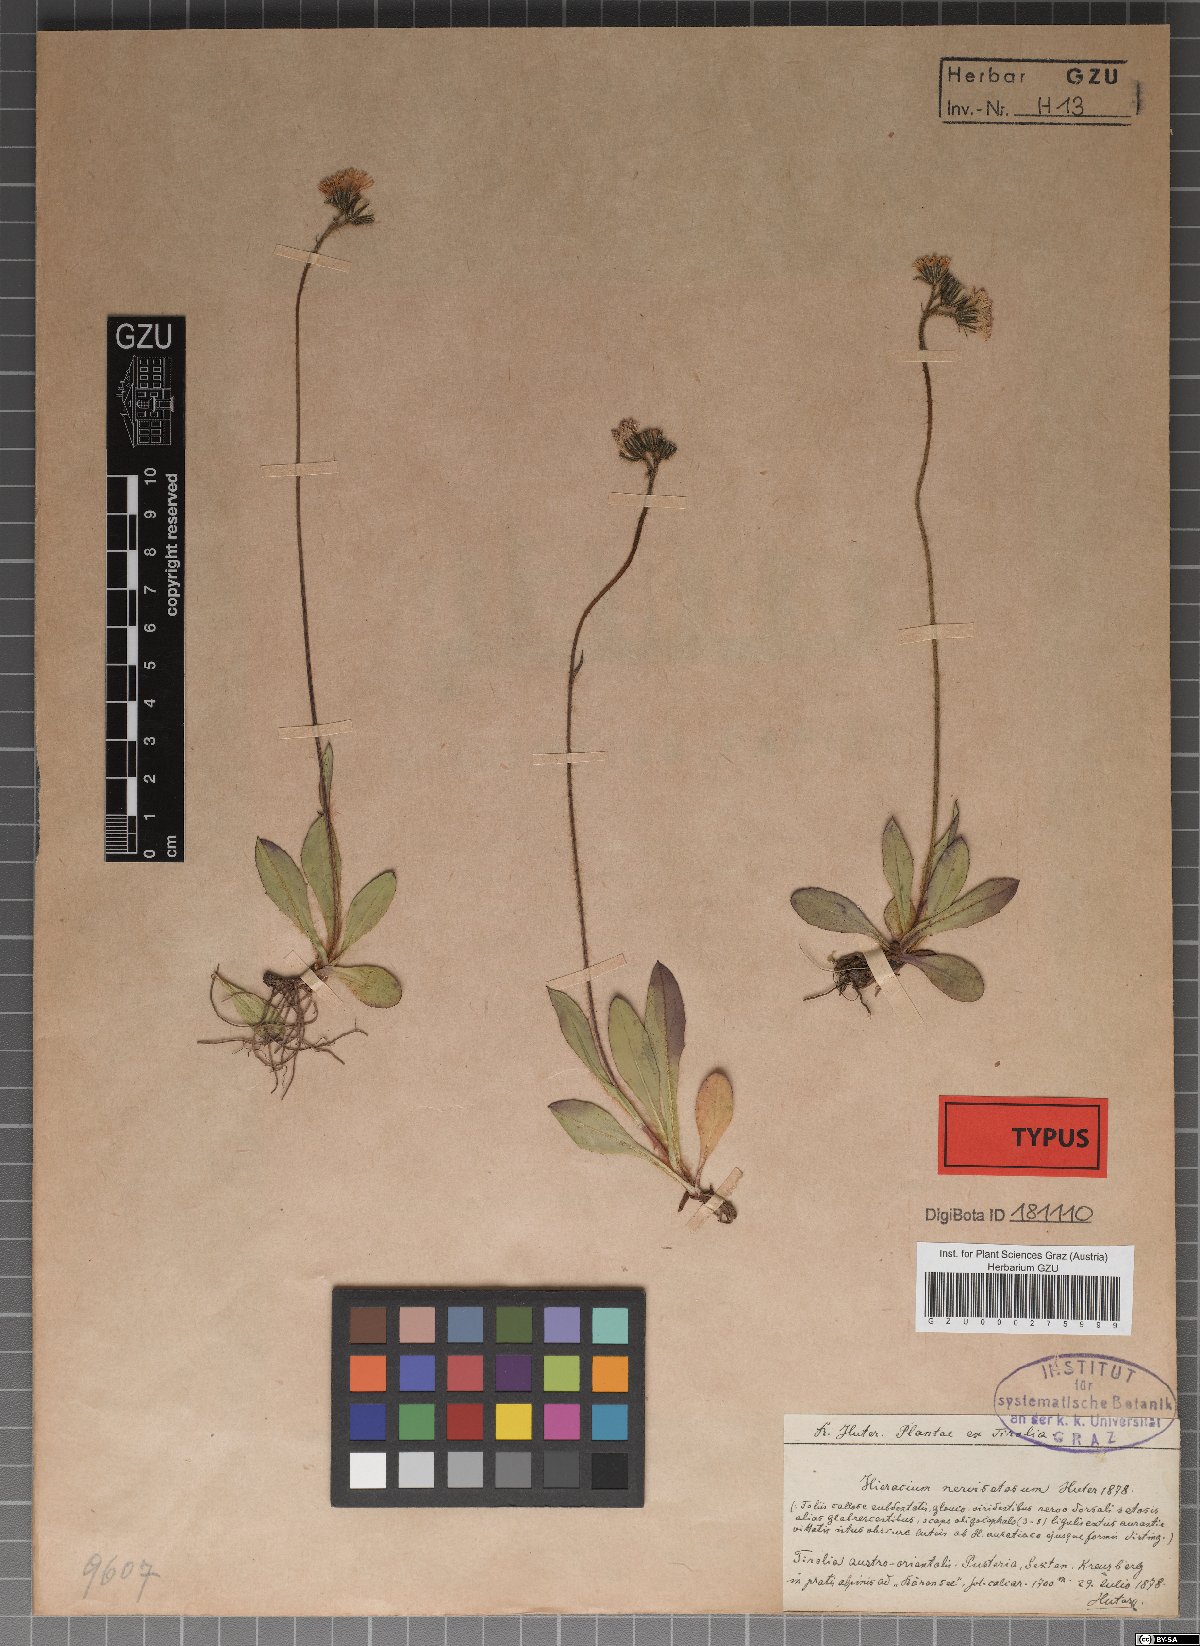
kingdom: Plantae
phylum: Tracheophyta
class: Magnoliopsida
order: Asterales
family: Asteraceae
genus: Pilosella
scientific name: Pilosella fusca
